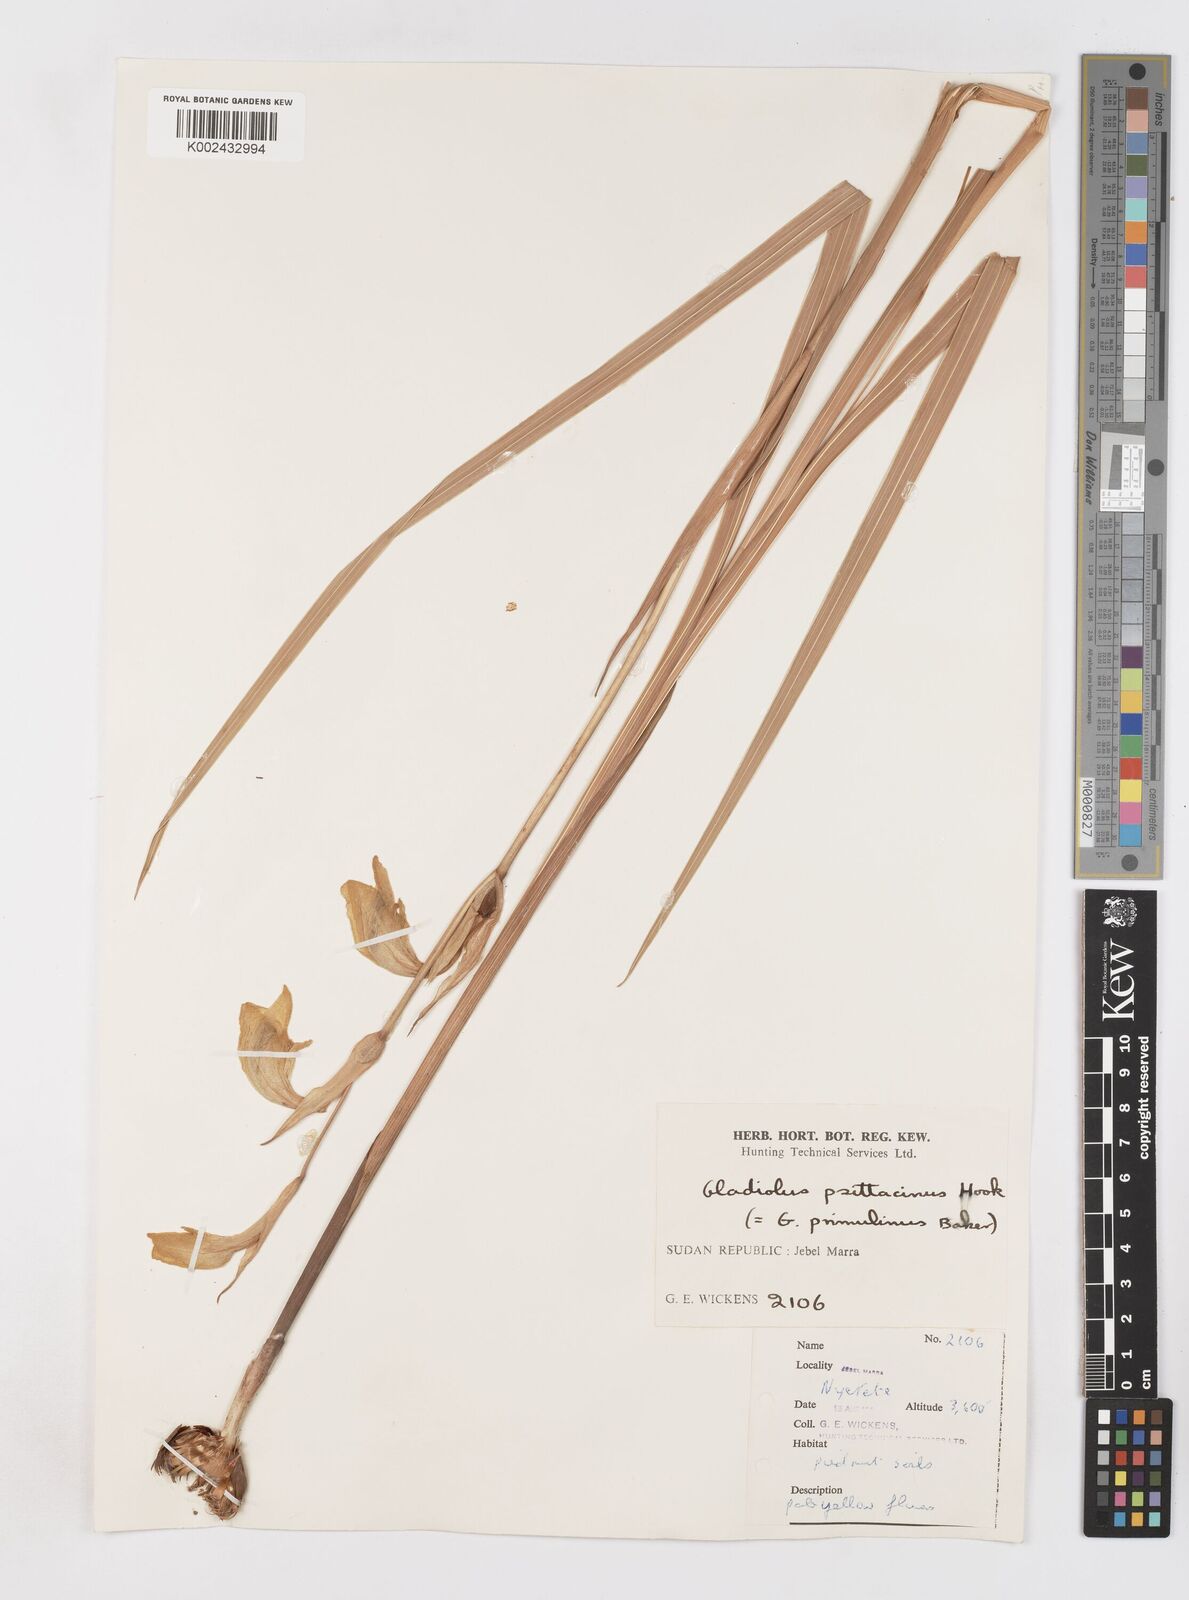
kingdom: Plantae
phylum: Tracheophyta
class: Liliopsida
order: Asparagales
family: Iridaceae
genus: Gladiolus
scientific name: Gladiolus dalenii
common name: Cornflag
